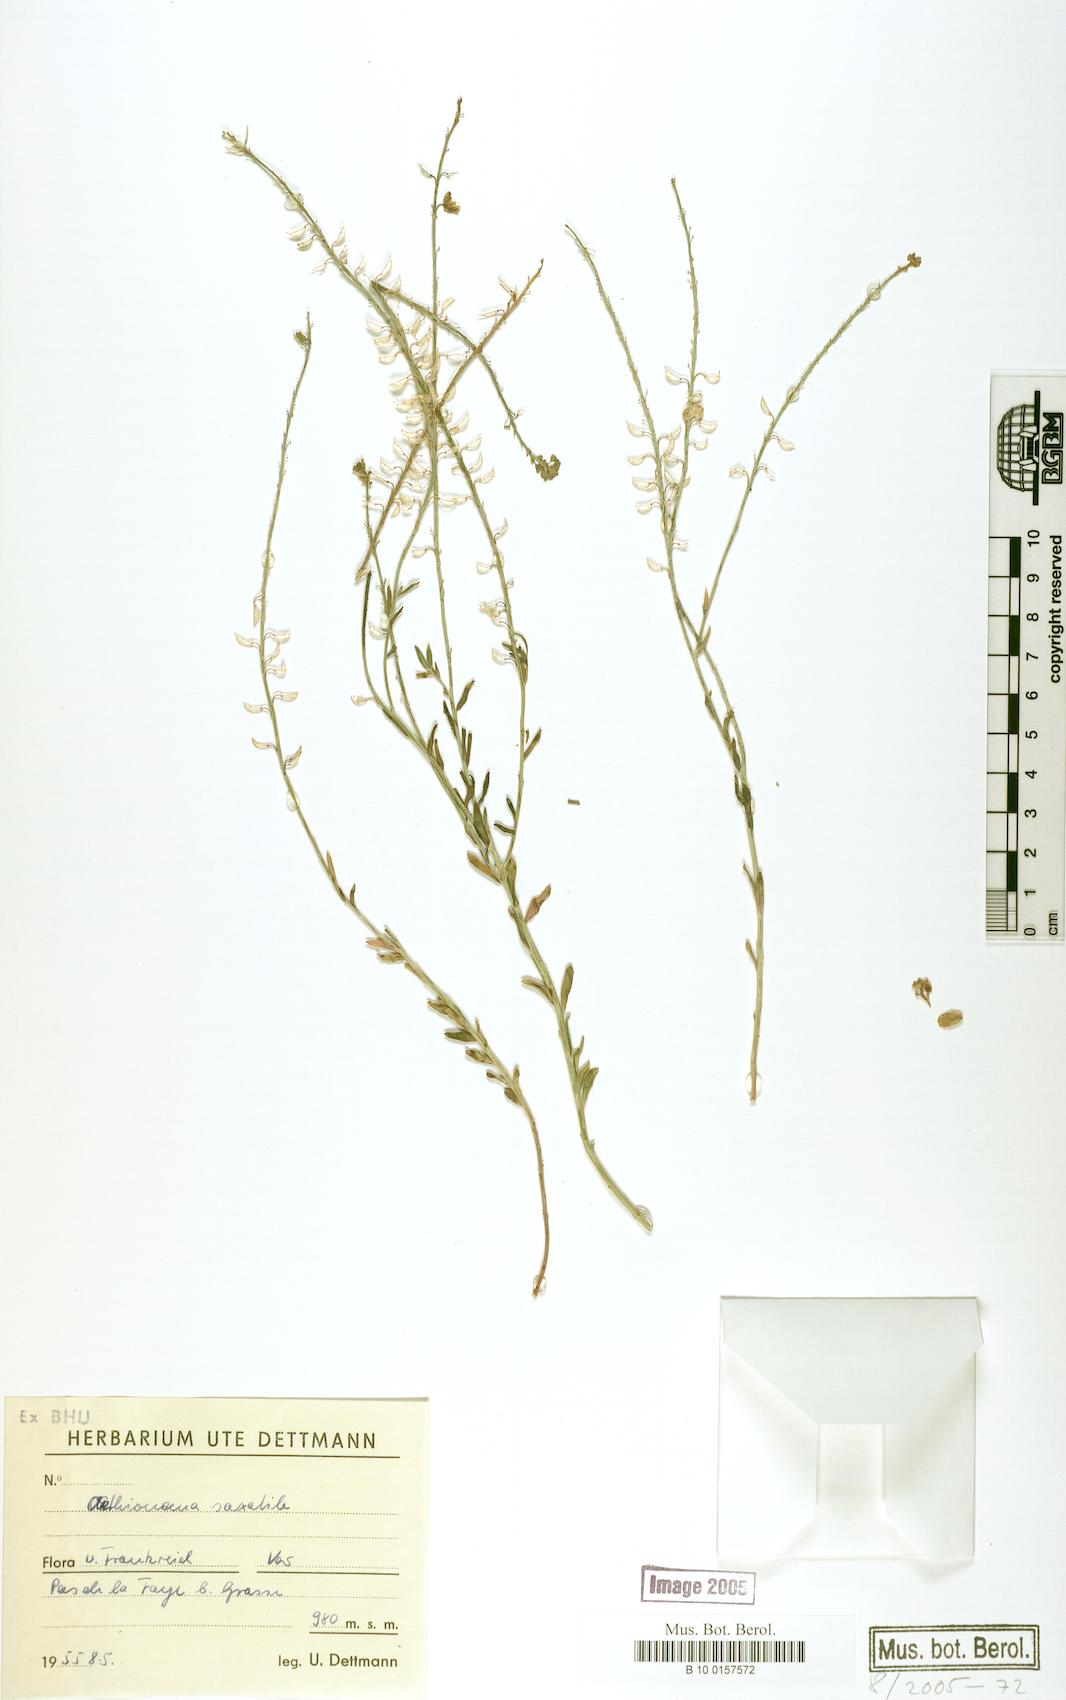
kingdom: Plantae
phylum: Tracheophyta
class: Magnoliopsida
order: Brassicales
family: Brassicaceae
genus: Aethionema
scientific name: Aethionema saxatile
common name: Burnt candytuft
